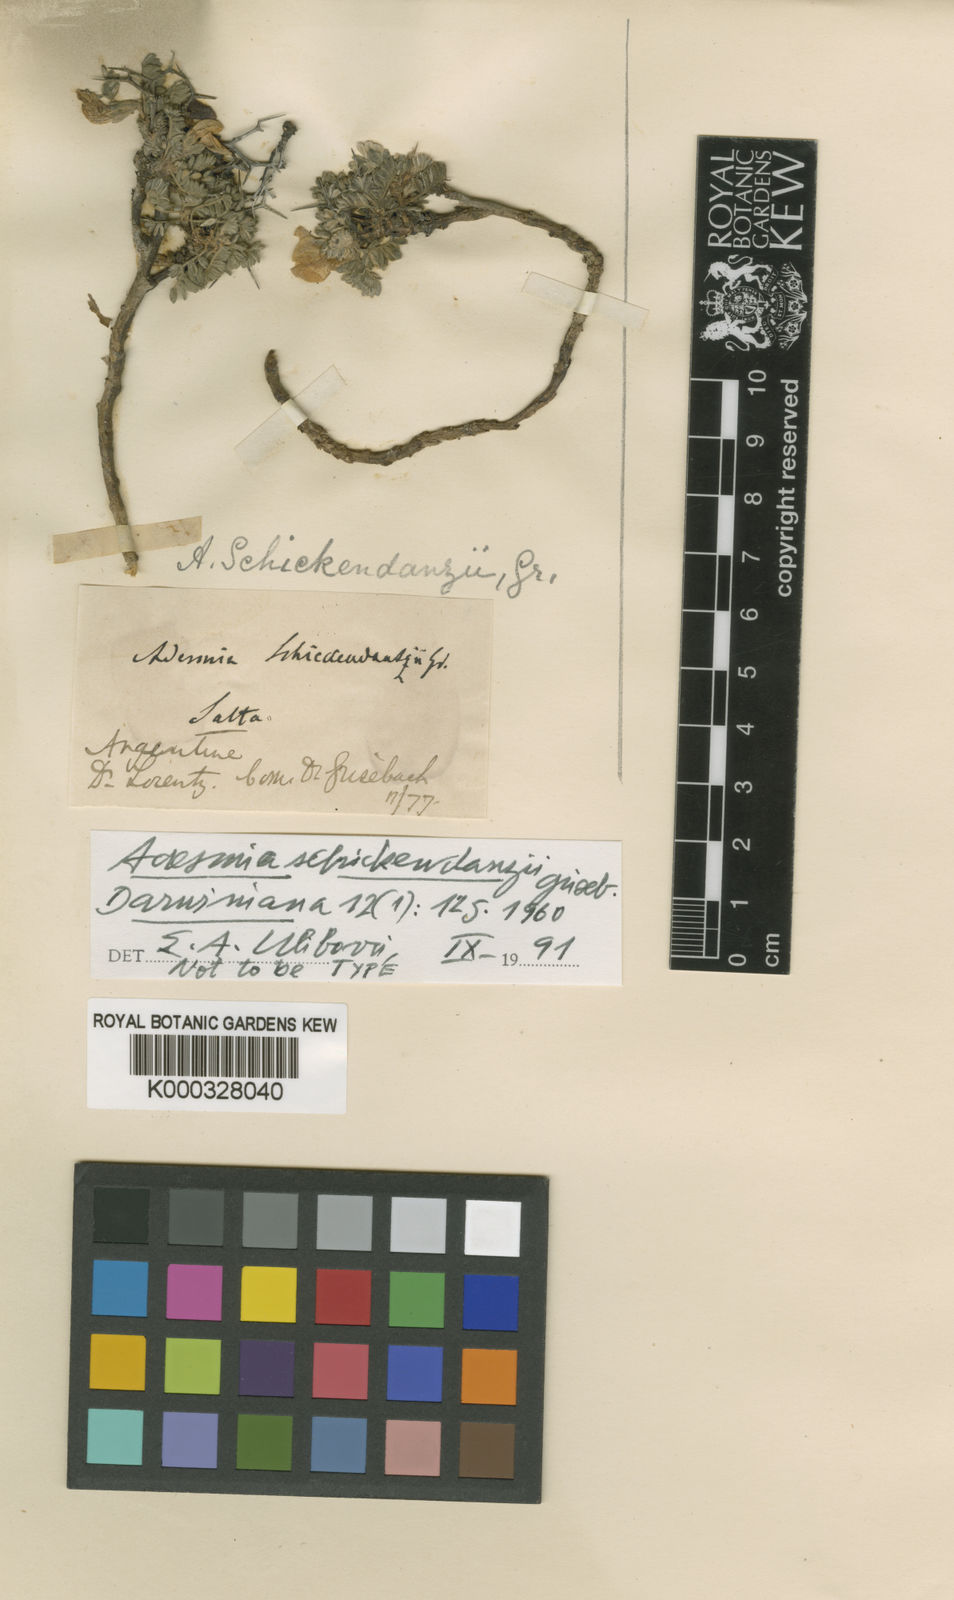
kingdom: Plantae
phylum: Tracheophyta
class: Magnoliopsida
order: Fabales
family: Fabaceae
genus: Adesmia
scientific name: Adesmia
